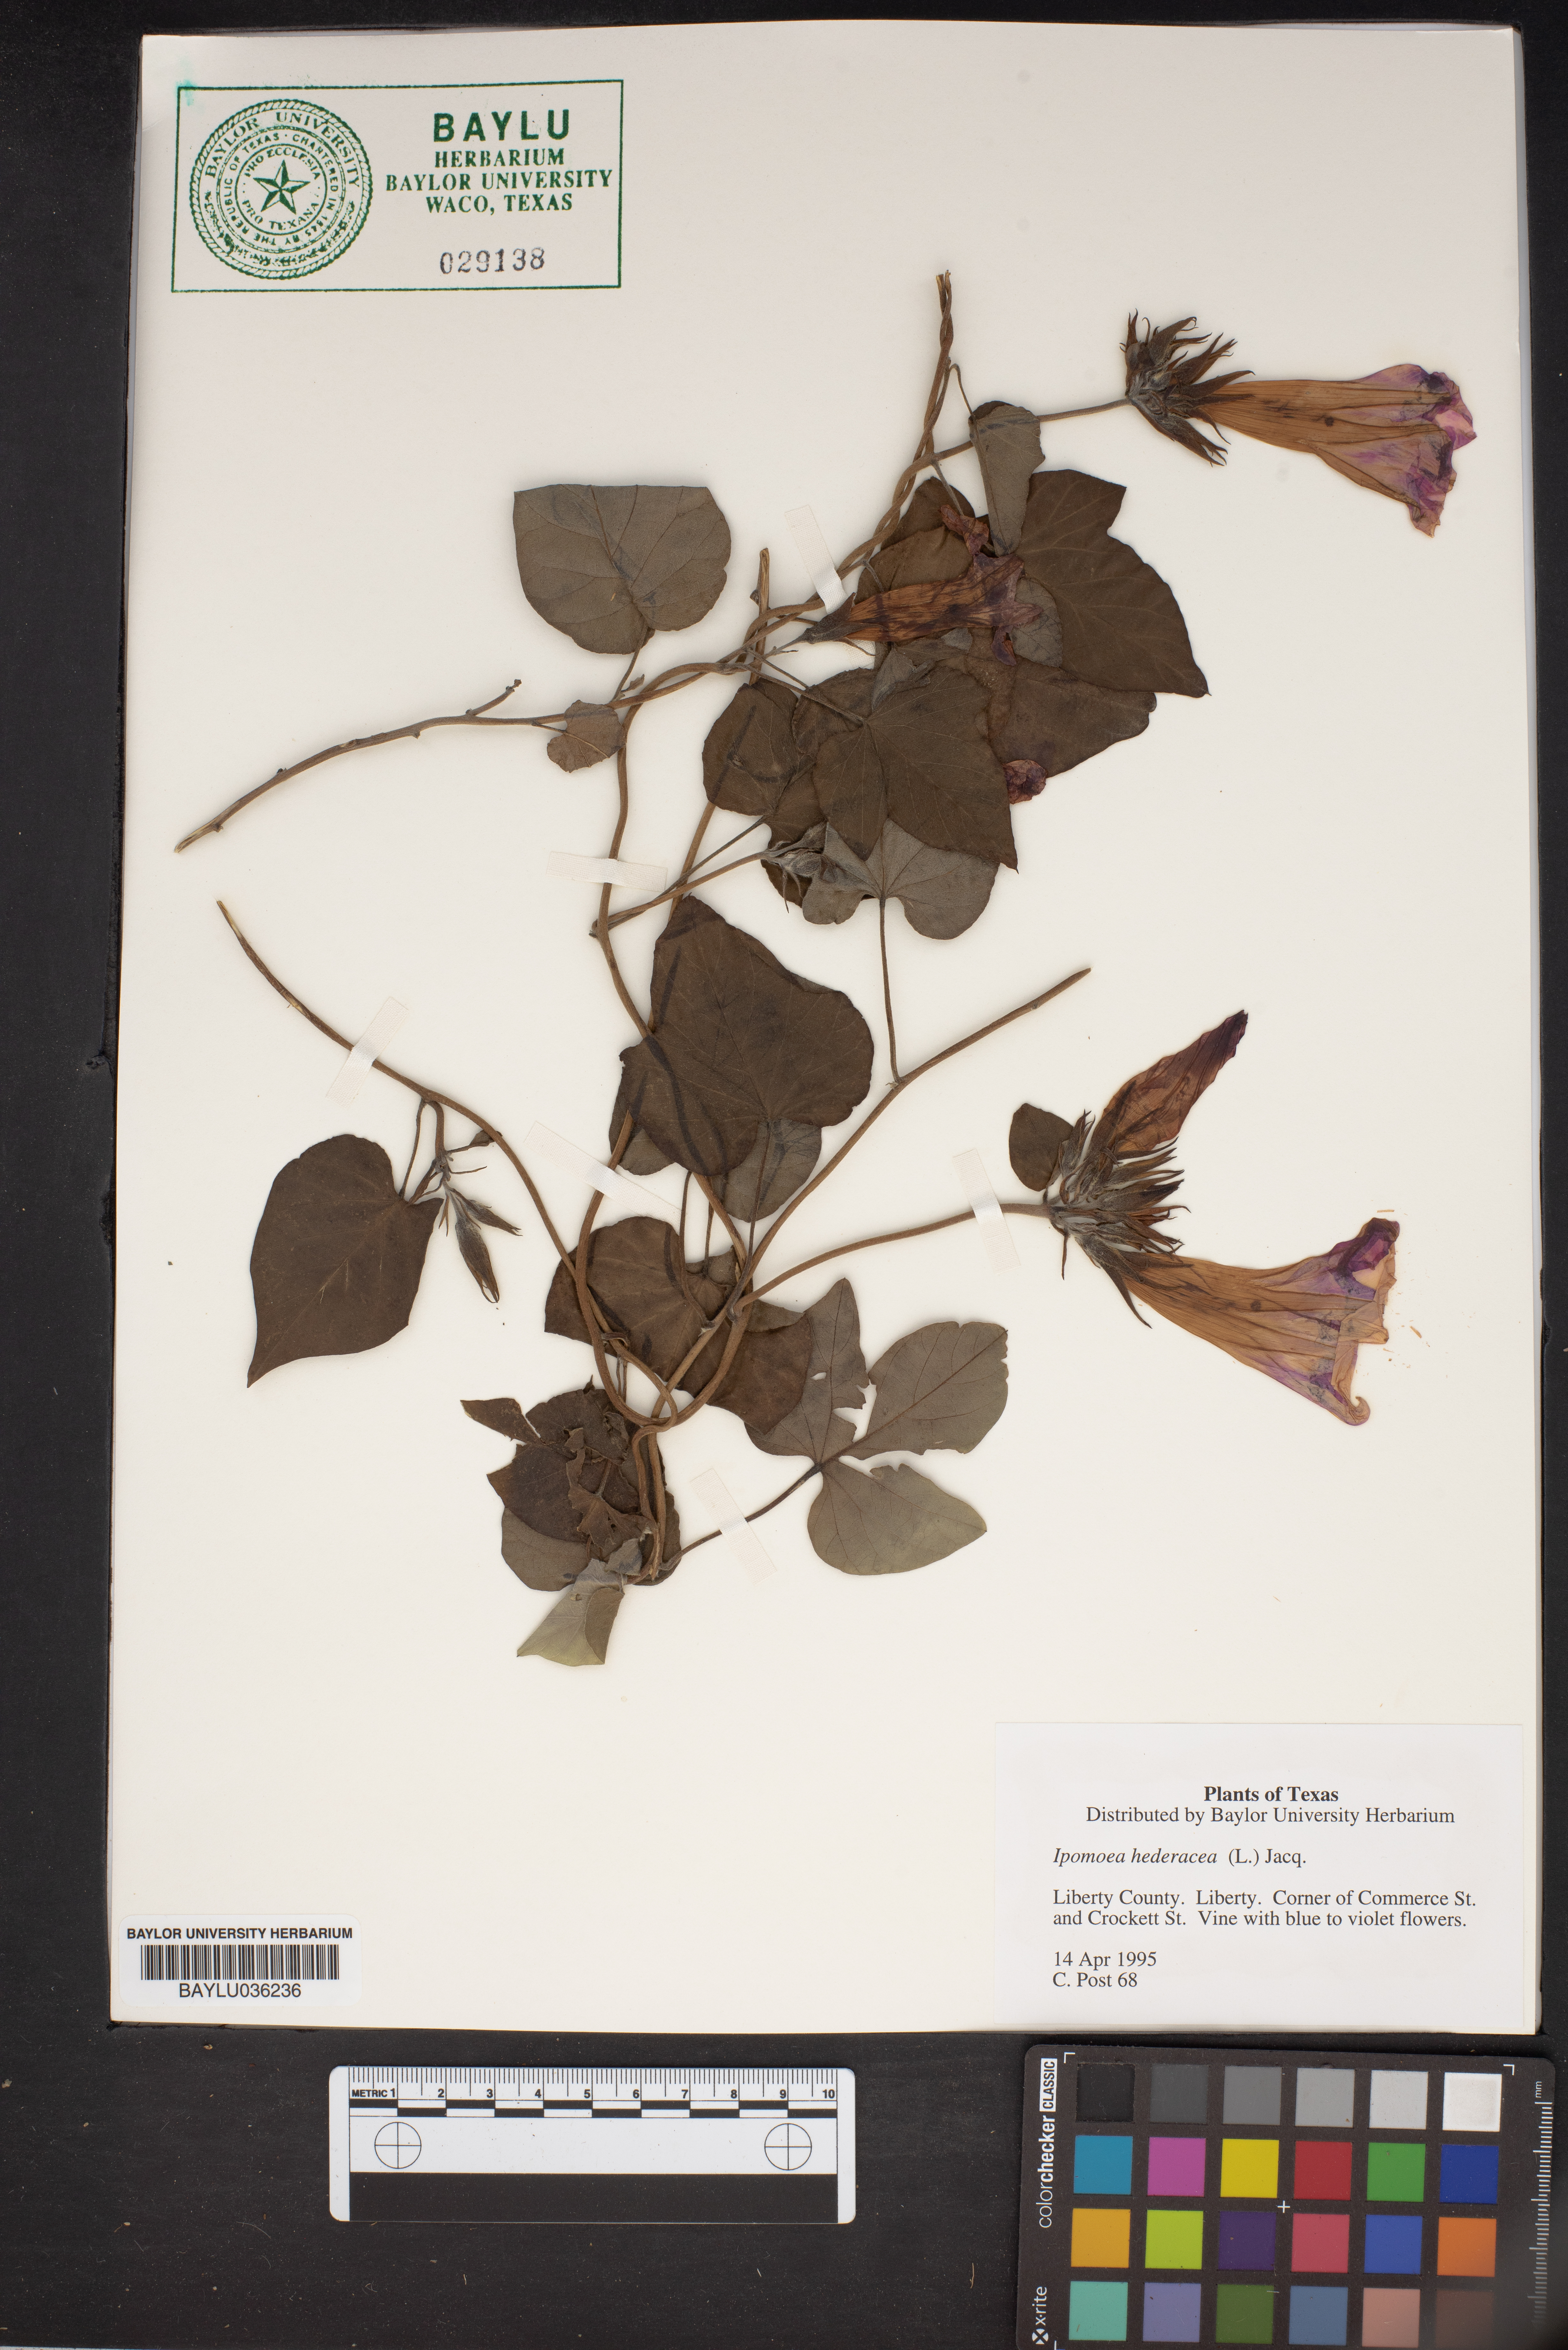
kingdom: Plantae
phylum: Tracheophyta
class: Magnoliopsida
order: Solanales
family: Convolvulaceae
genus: Ipomoea
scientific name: Ipomoea hederacea
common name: Ivy-leaved morning-glory
